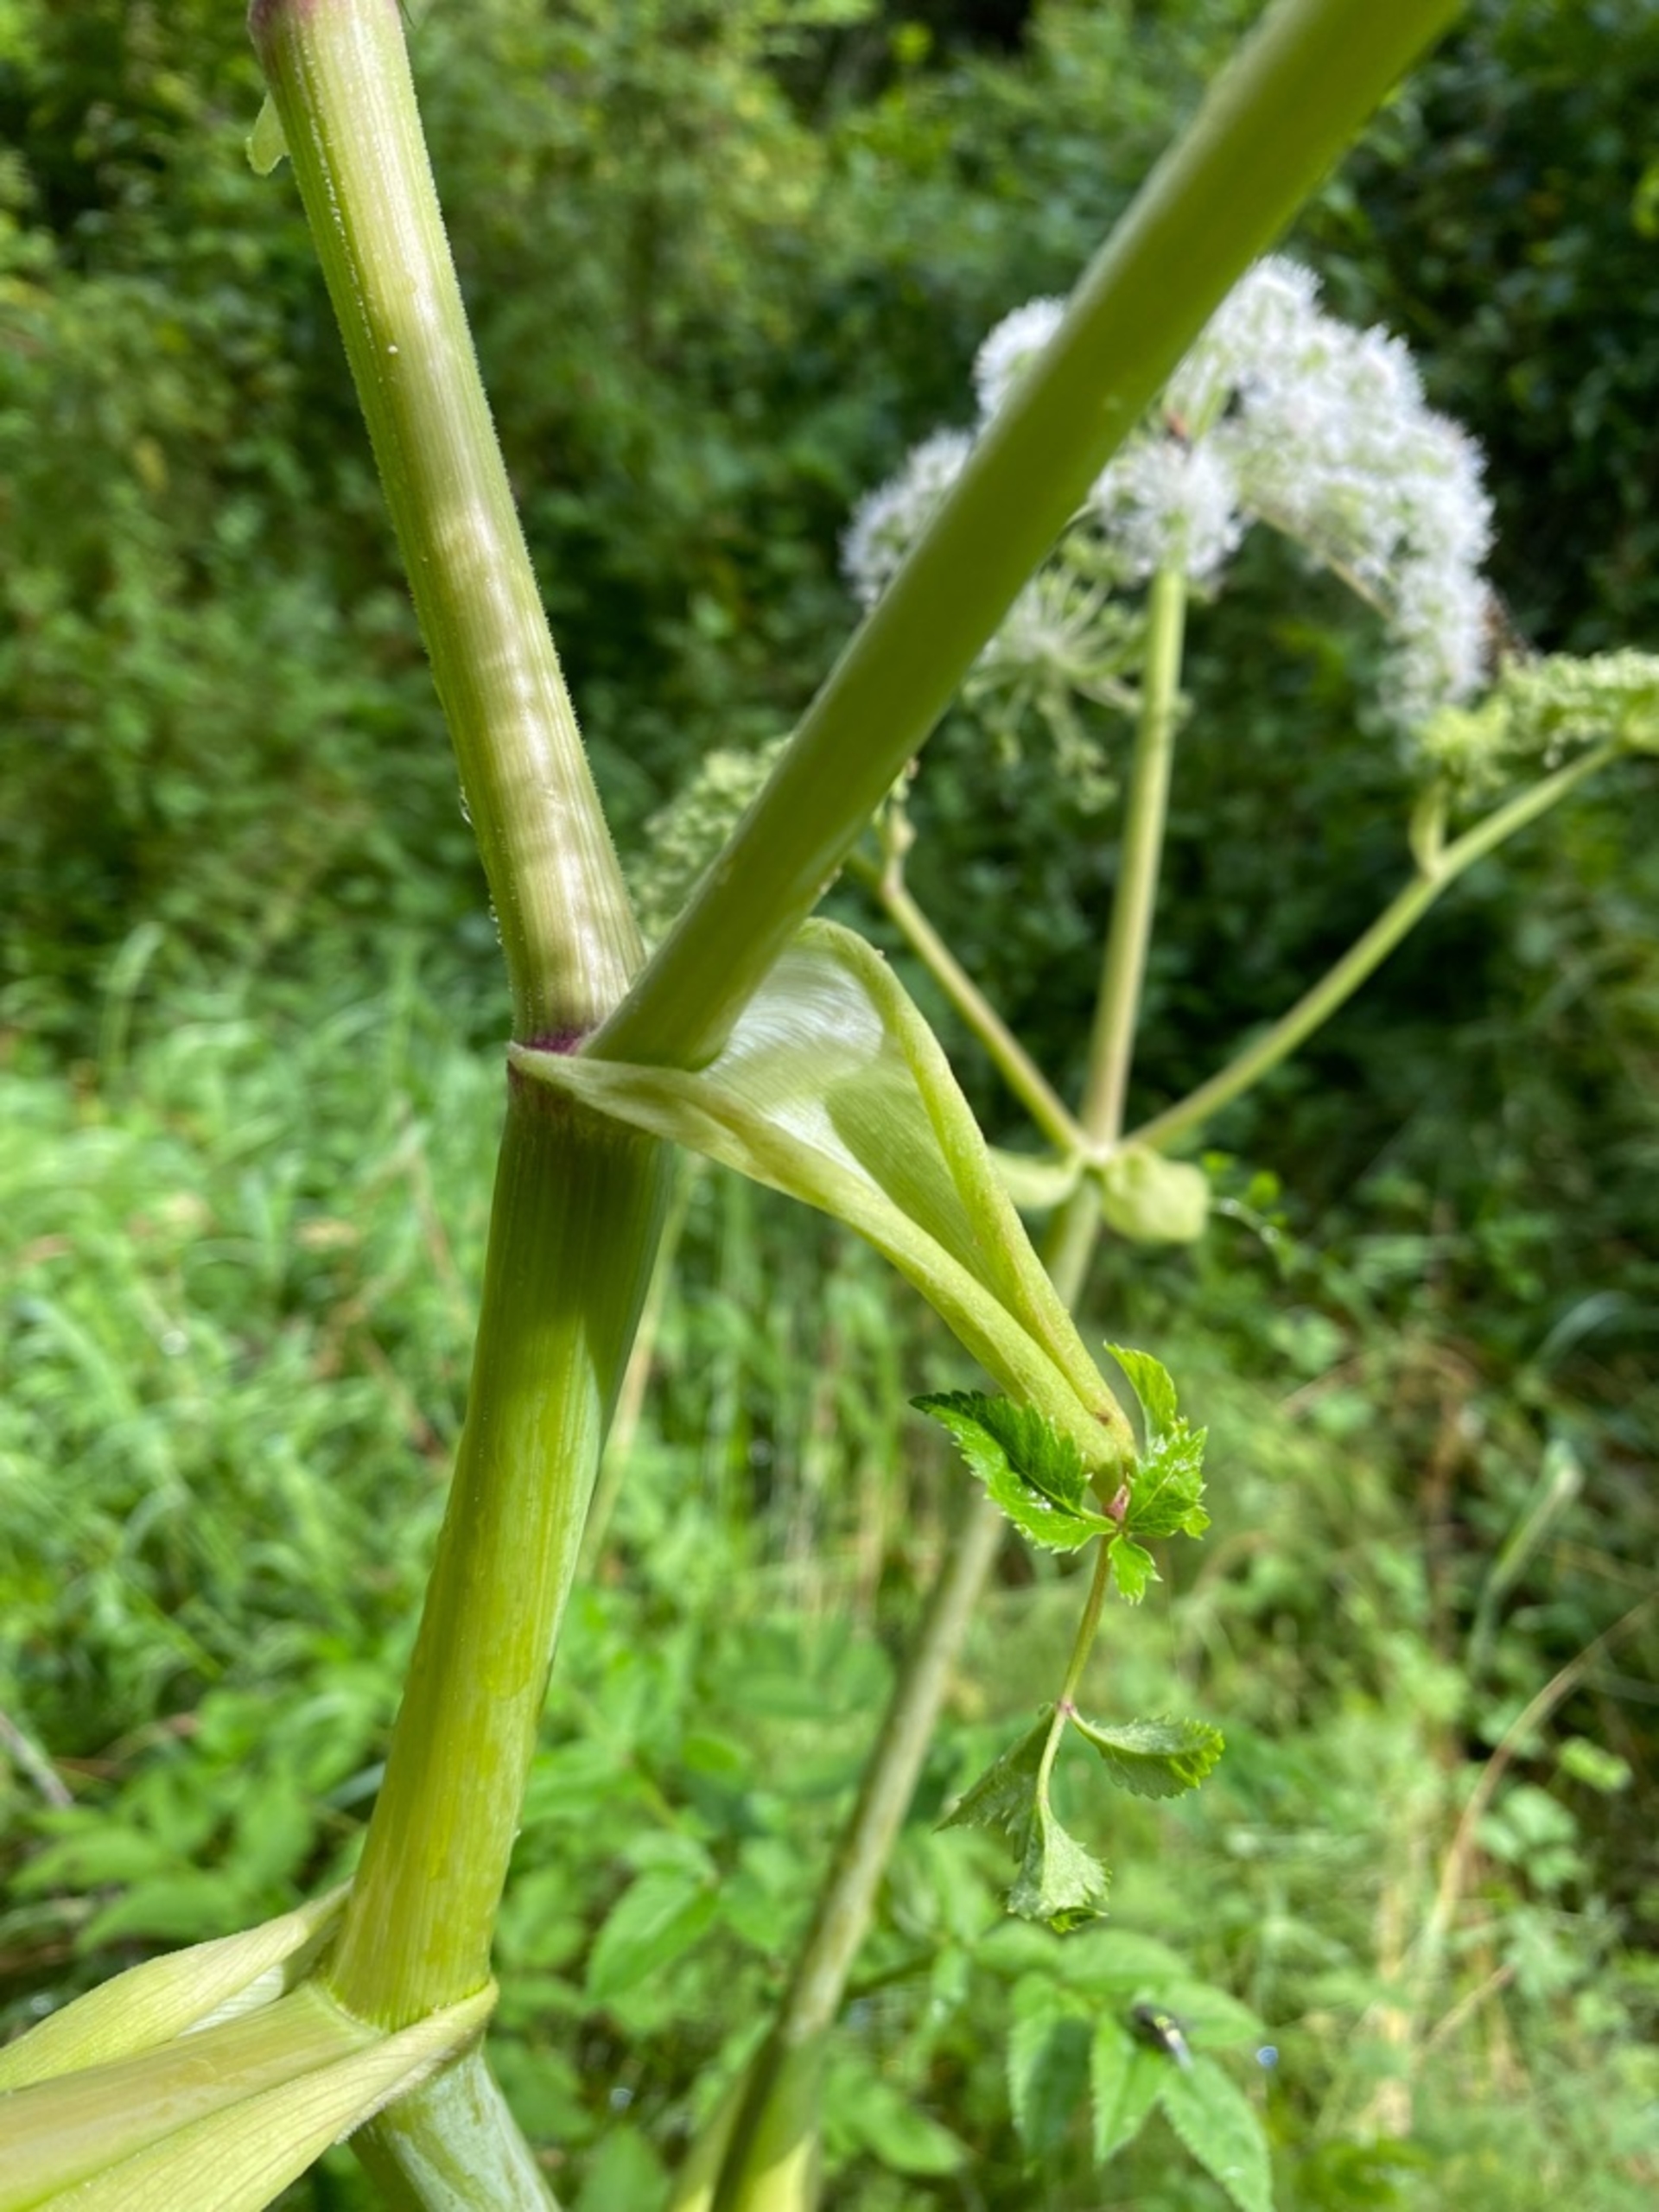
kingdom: Plantae
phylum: Tracheophyta
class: Magnoliopsida
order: Apiales
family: Apiaceae
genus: Angelica
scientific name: Angelica sylvestris
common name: Angelik
